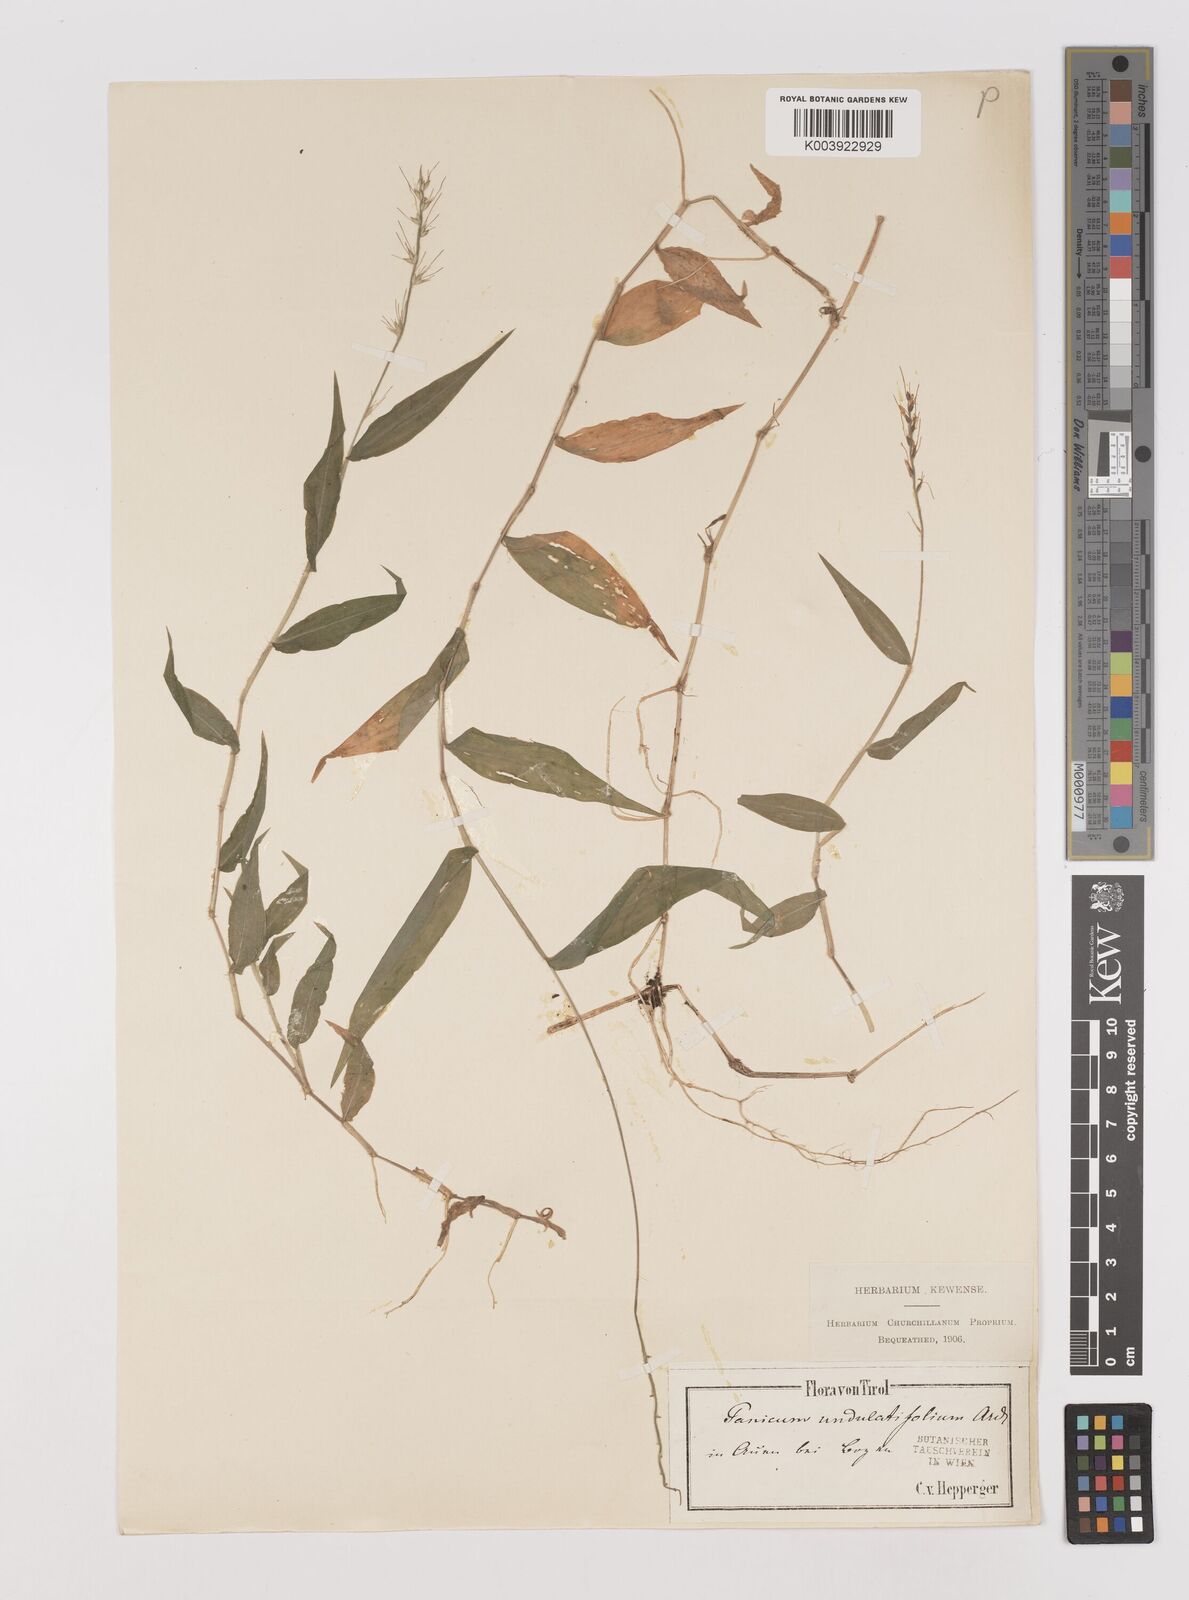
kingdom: Plantae
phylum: Tracheophyta
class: Liliopsida
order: Poales
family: Poaceae
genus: Oplismenus
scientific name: Oplismenus undulatifolius
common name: Wavyleaf basketgrass
